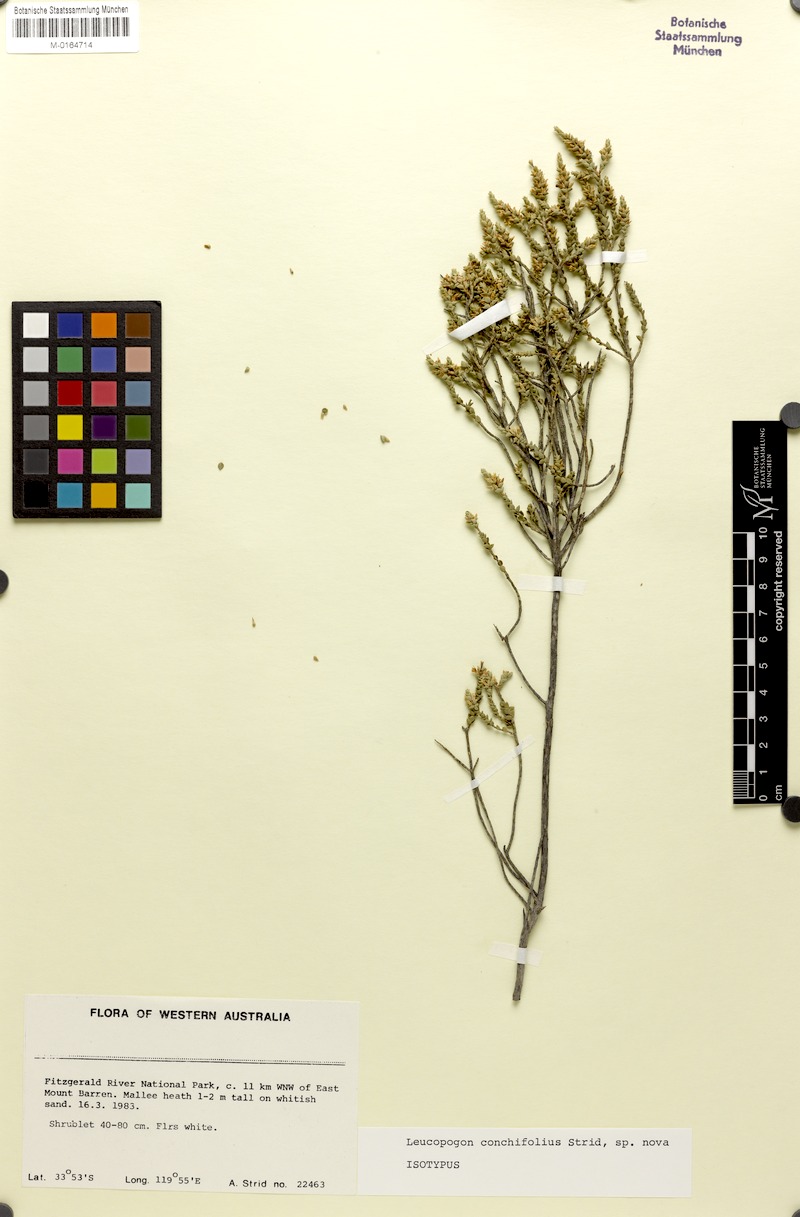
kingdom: Plantae
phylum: Tracheophyta
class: Magnoliopsida
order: Ericales
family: Ericaceae
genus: Styphelia
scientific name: Styphelia conchifolia
